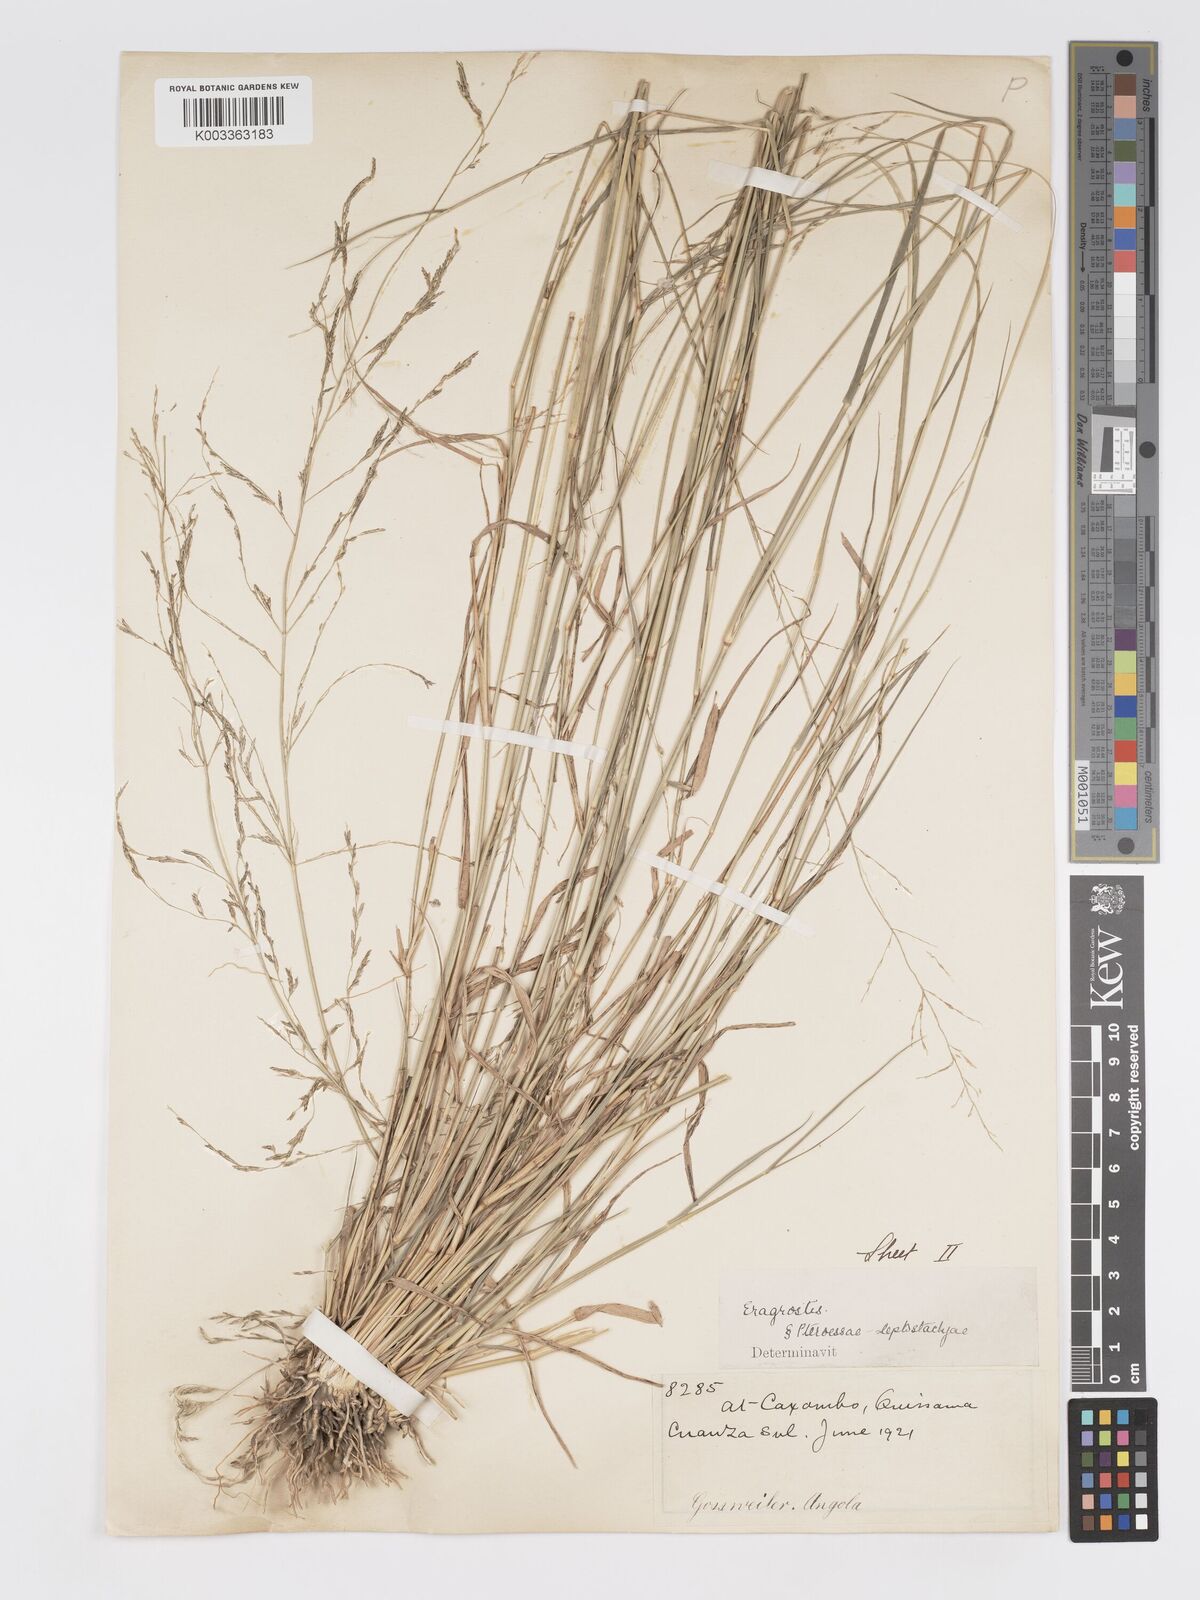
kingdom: Plantae
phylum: Tracheophyta
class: Liliopsida
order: Poales
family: Poaceae
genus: Eragrostis
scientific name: Eragrostis cylindriflora
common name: Cylinderflower lovegrass
